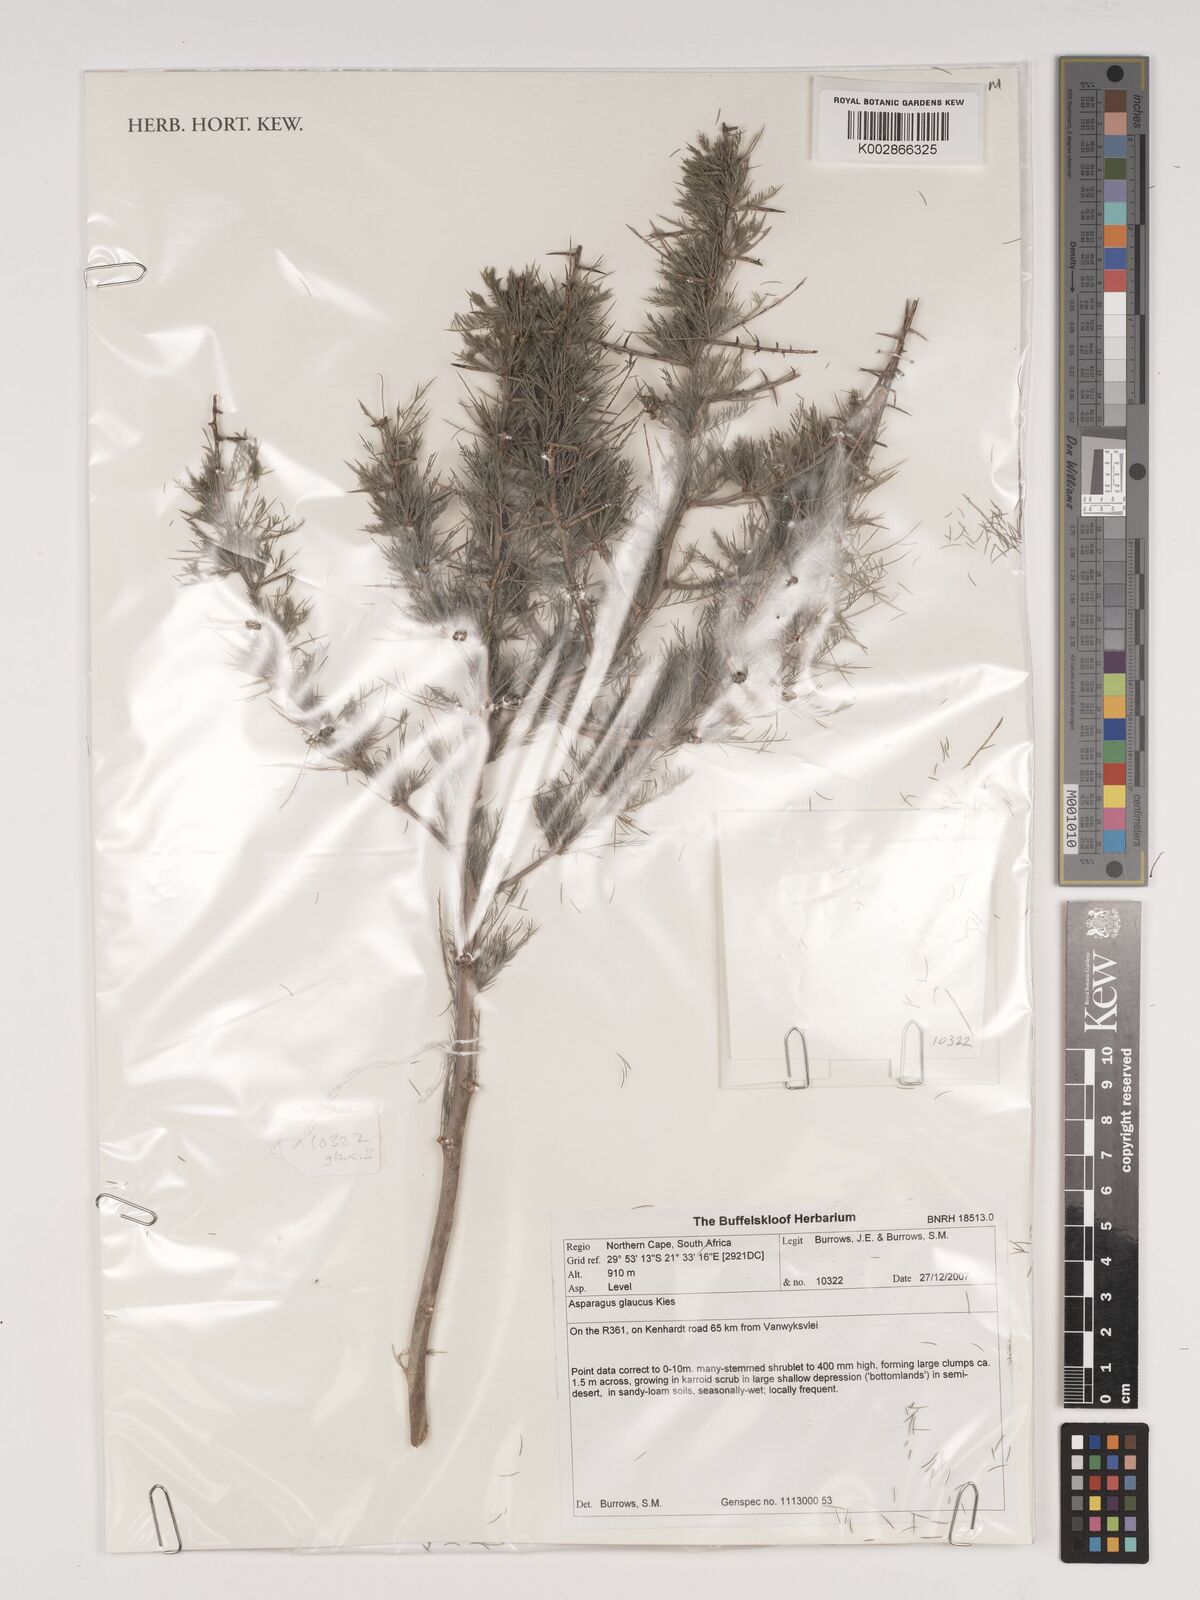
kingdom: Plantae
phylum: Tracheophyta
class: Liliopsida
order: Asparagales
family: Asparagaceae
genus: Asparagus
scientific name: Asparagus glaucus
